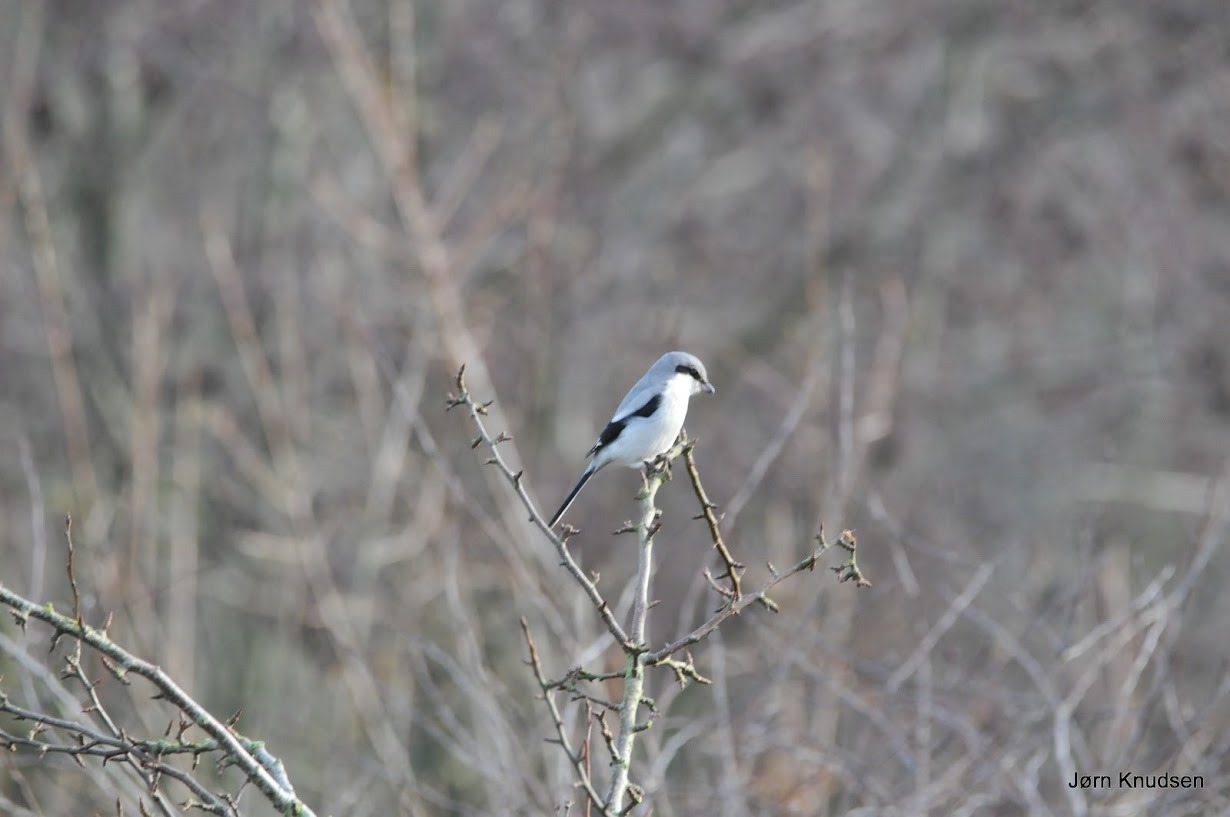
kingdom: Animalia
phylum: Chordata
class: Aves
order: Passeriformes
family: Laniidae
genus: Lanius
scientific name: Lanius excubitor
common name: Stor tornskade
